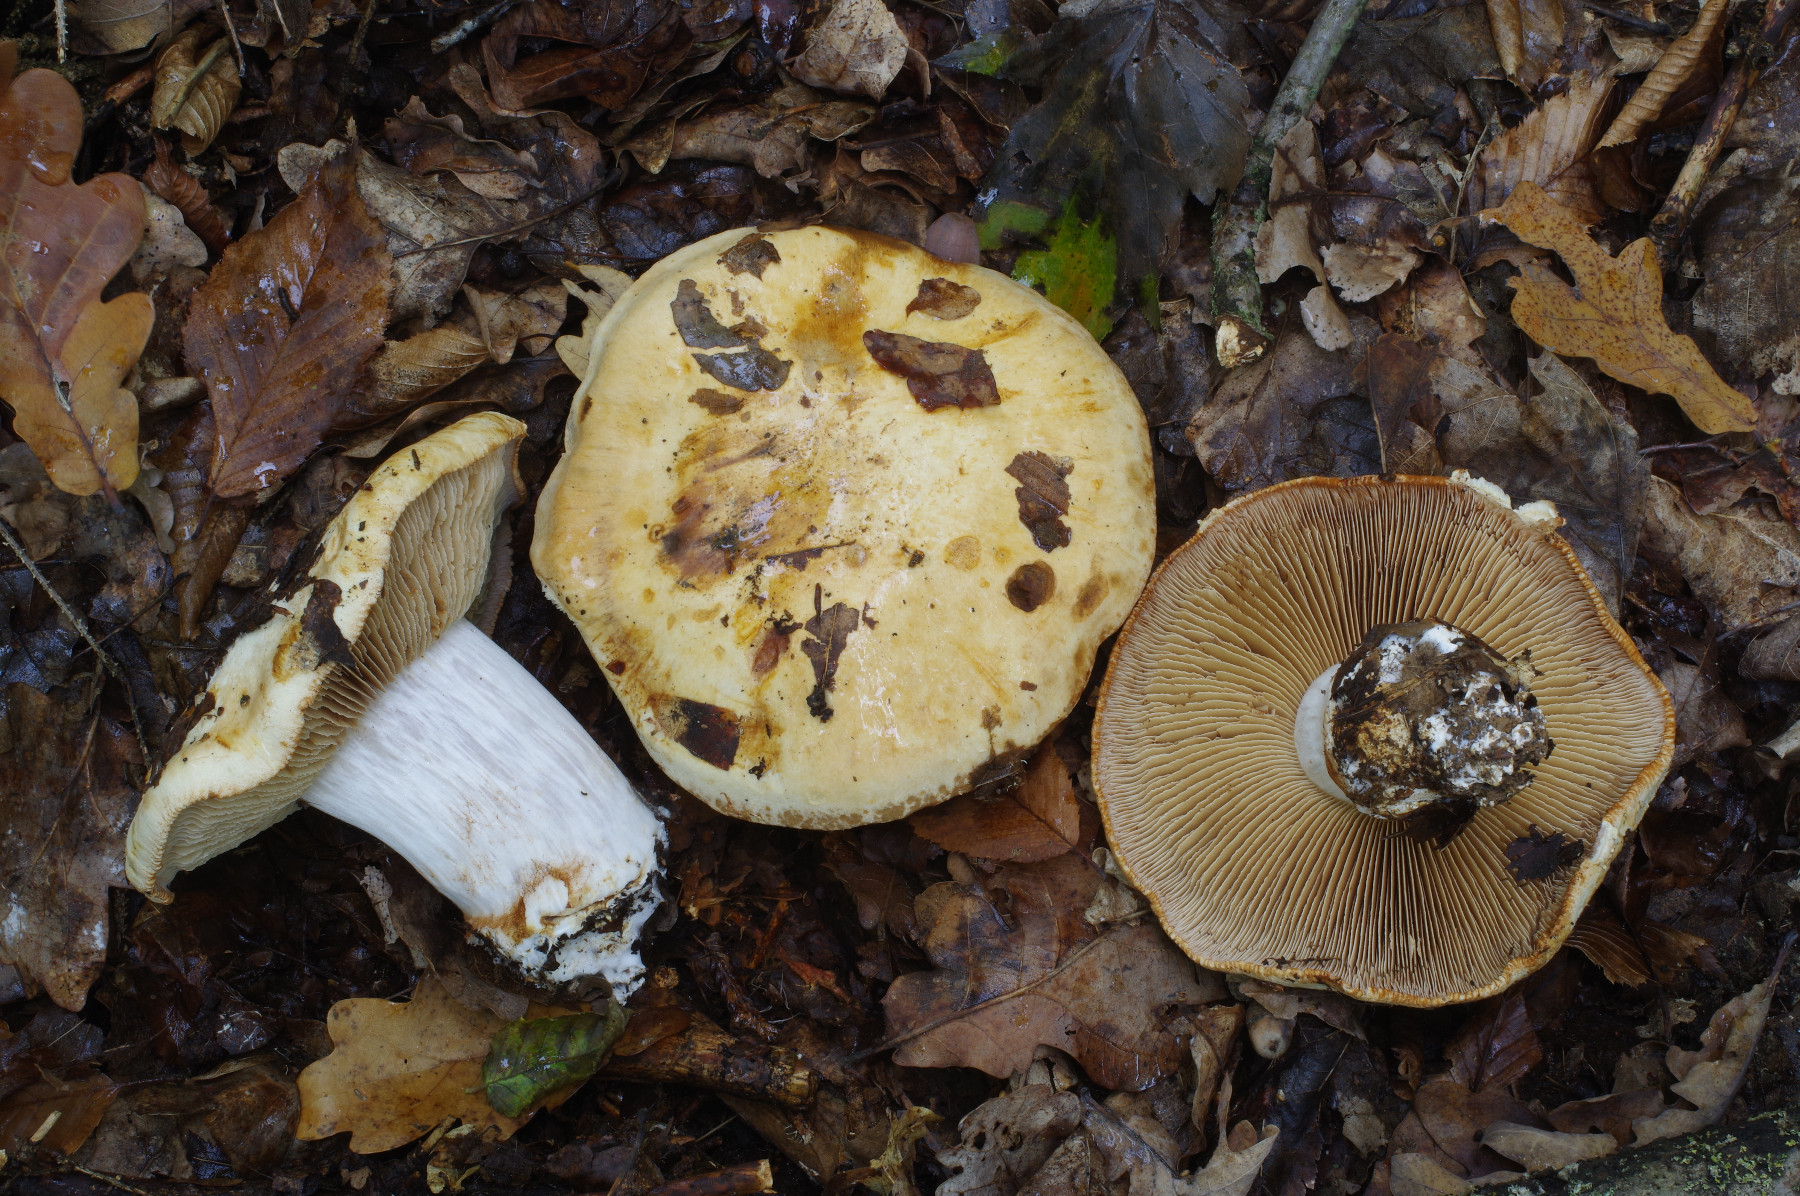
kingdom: Fungi
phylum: Basidiomycota
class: Agaricomycetes
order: Agaricales
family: Cortinariaceae
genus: Calonarius
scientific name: Calonarius rapaceotomentosus
